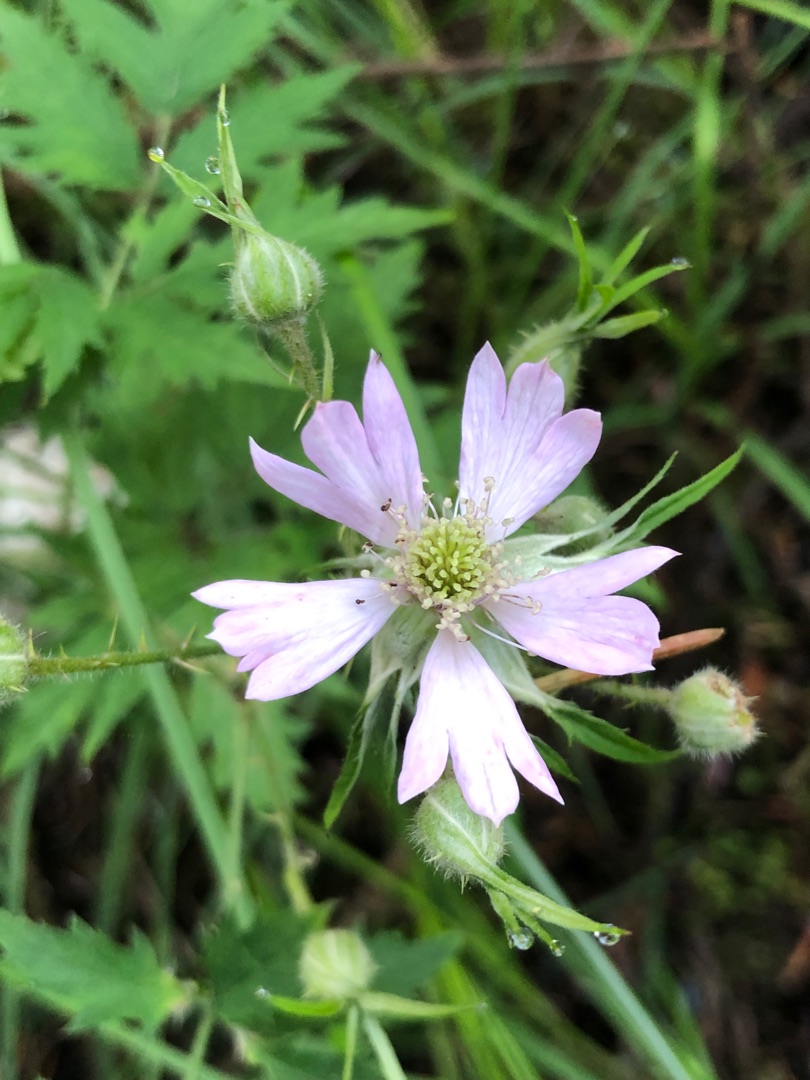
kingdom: Plantae
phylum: Tracheophyta
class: Magnoliopsida
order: Rosales
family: Rosaceae
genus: Rubus
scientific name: Rubus laciniatus
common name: Fliget brombær
